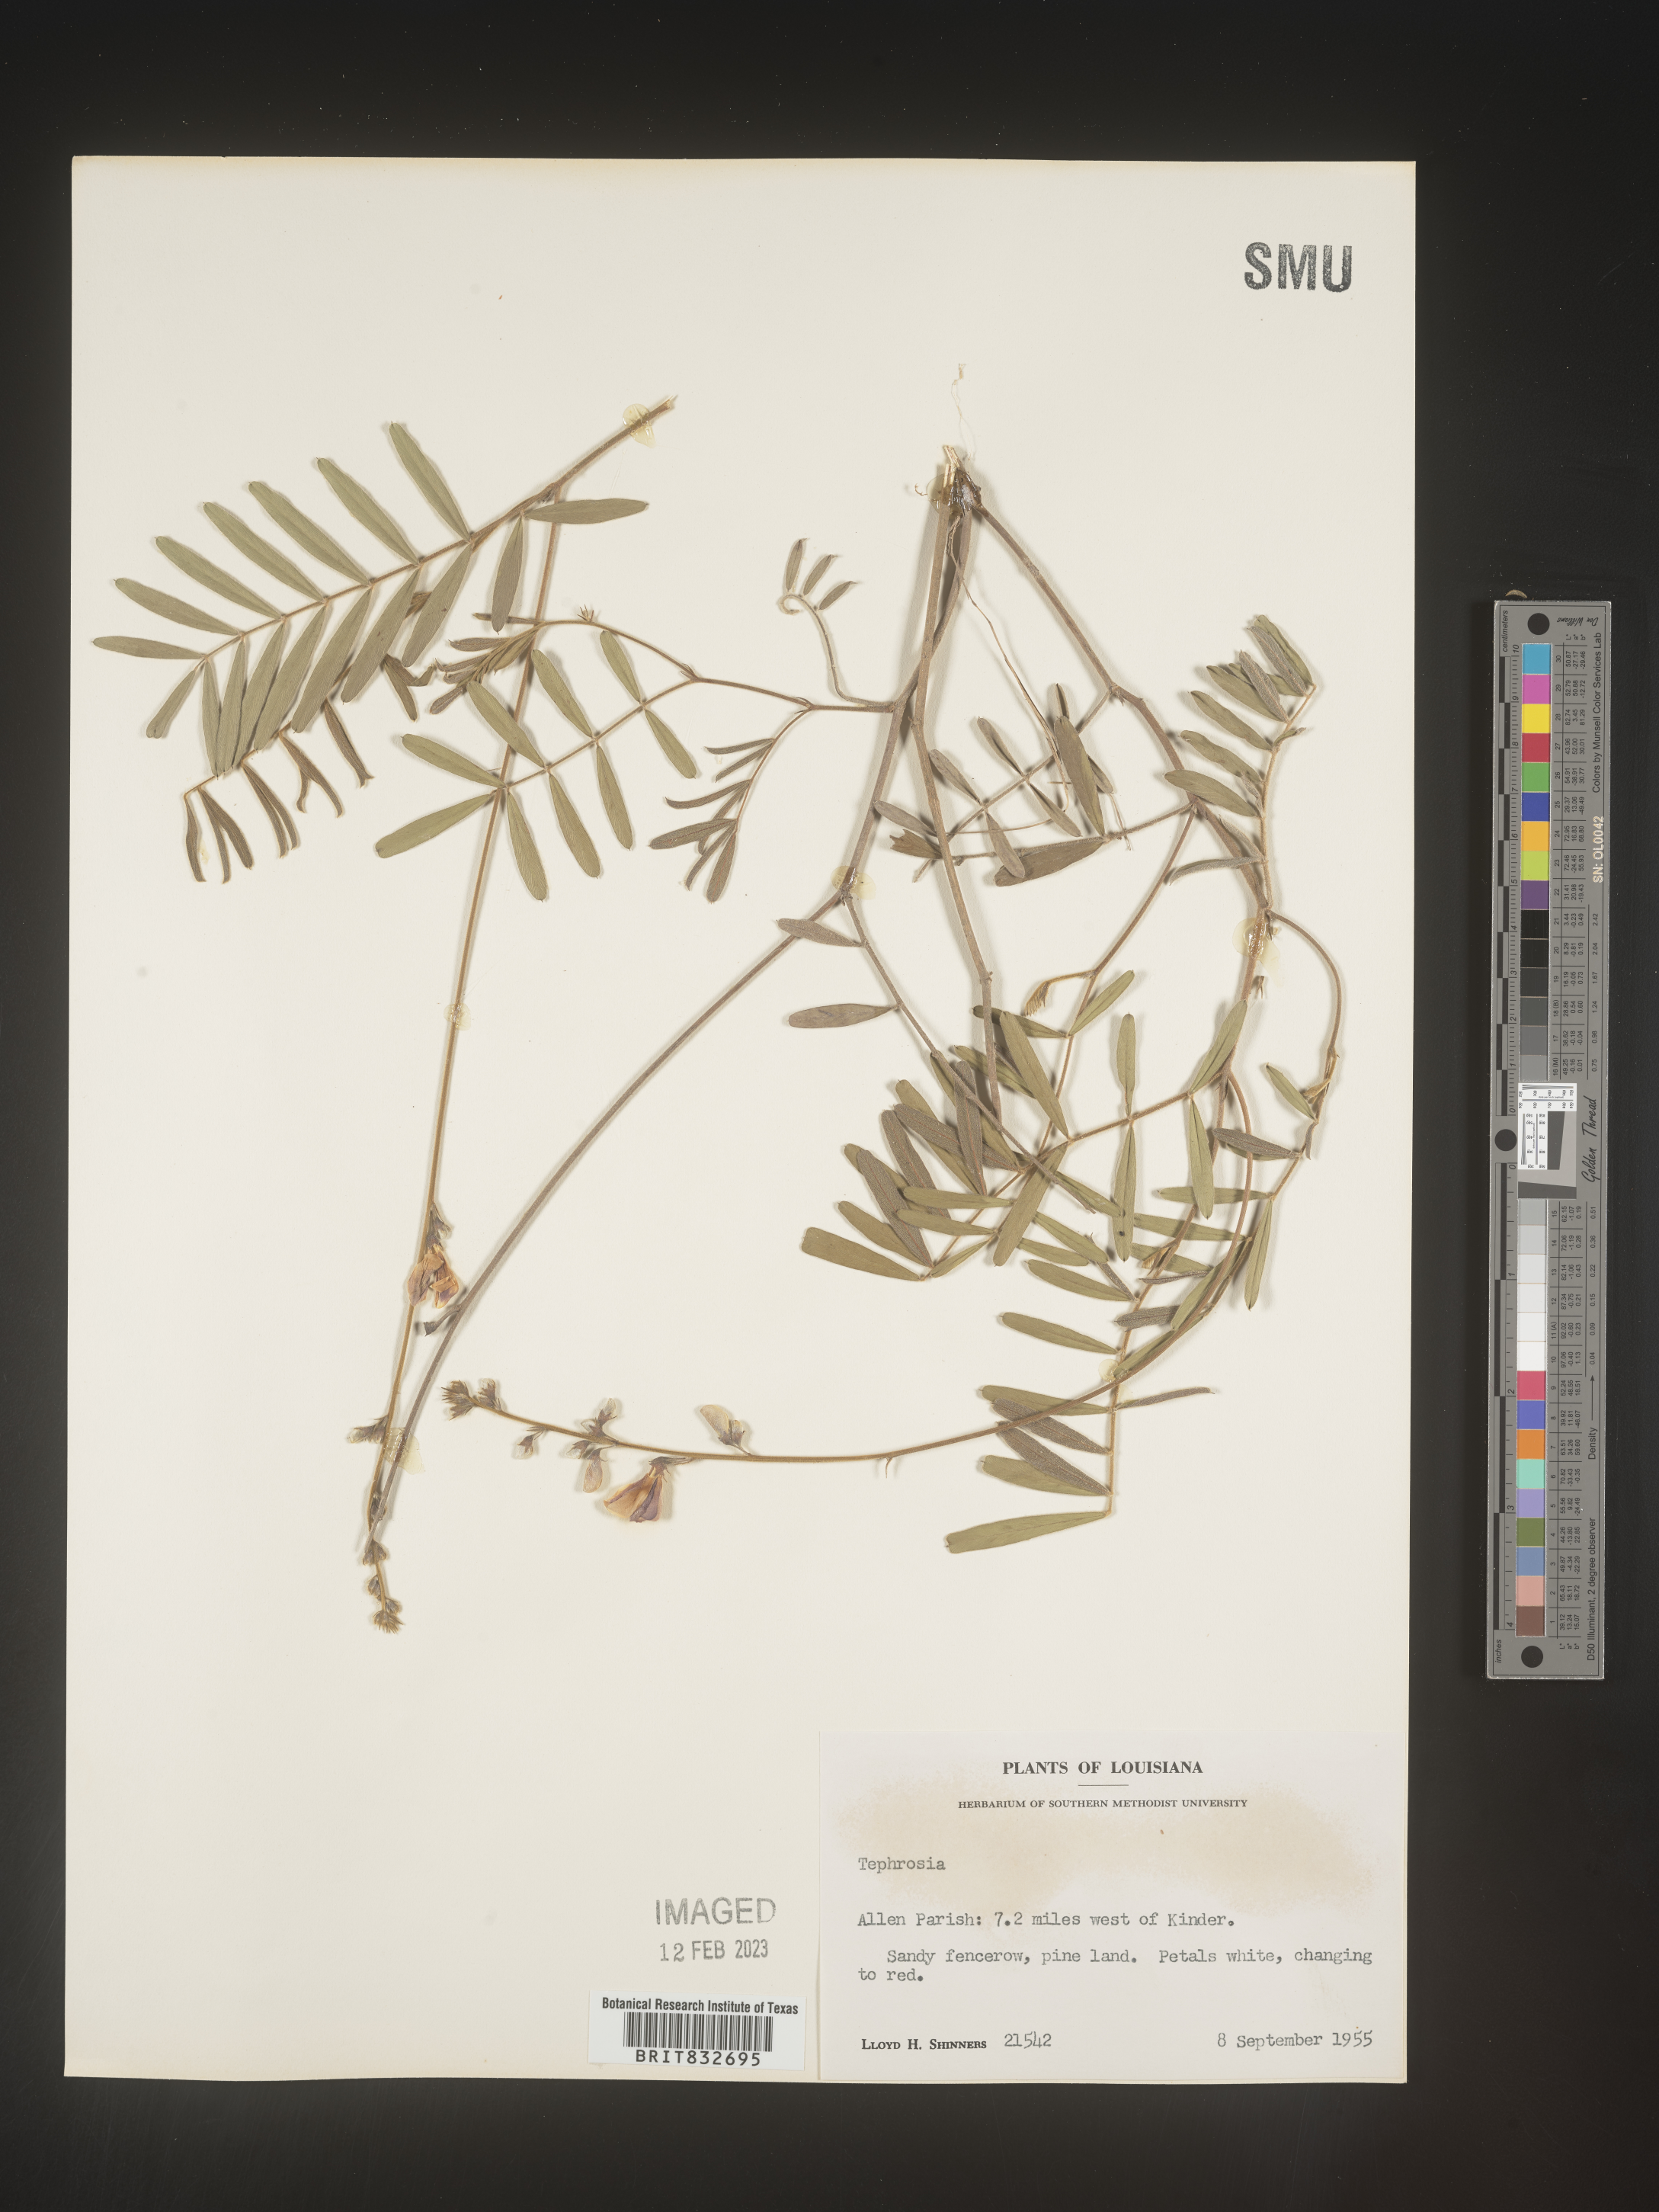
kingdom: Plantae
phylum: Tracheophyta
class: Magnoliopsida
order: Fabales
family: Fabaceae
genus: Tephrosia
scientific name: Tephrosia onobrychoides
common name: Multi-bloom hoary-pea
